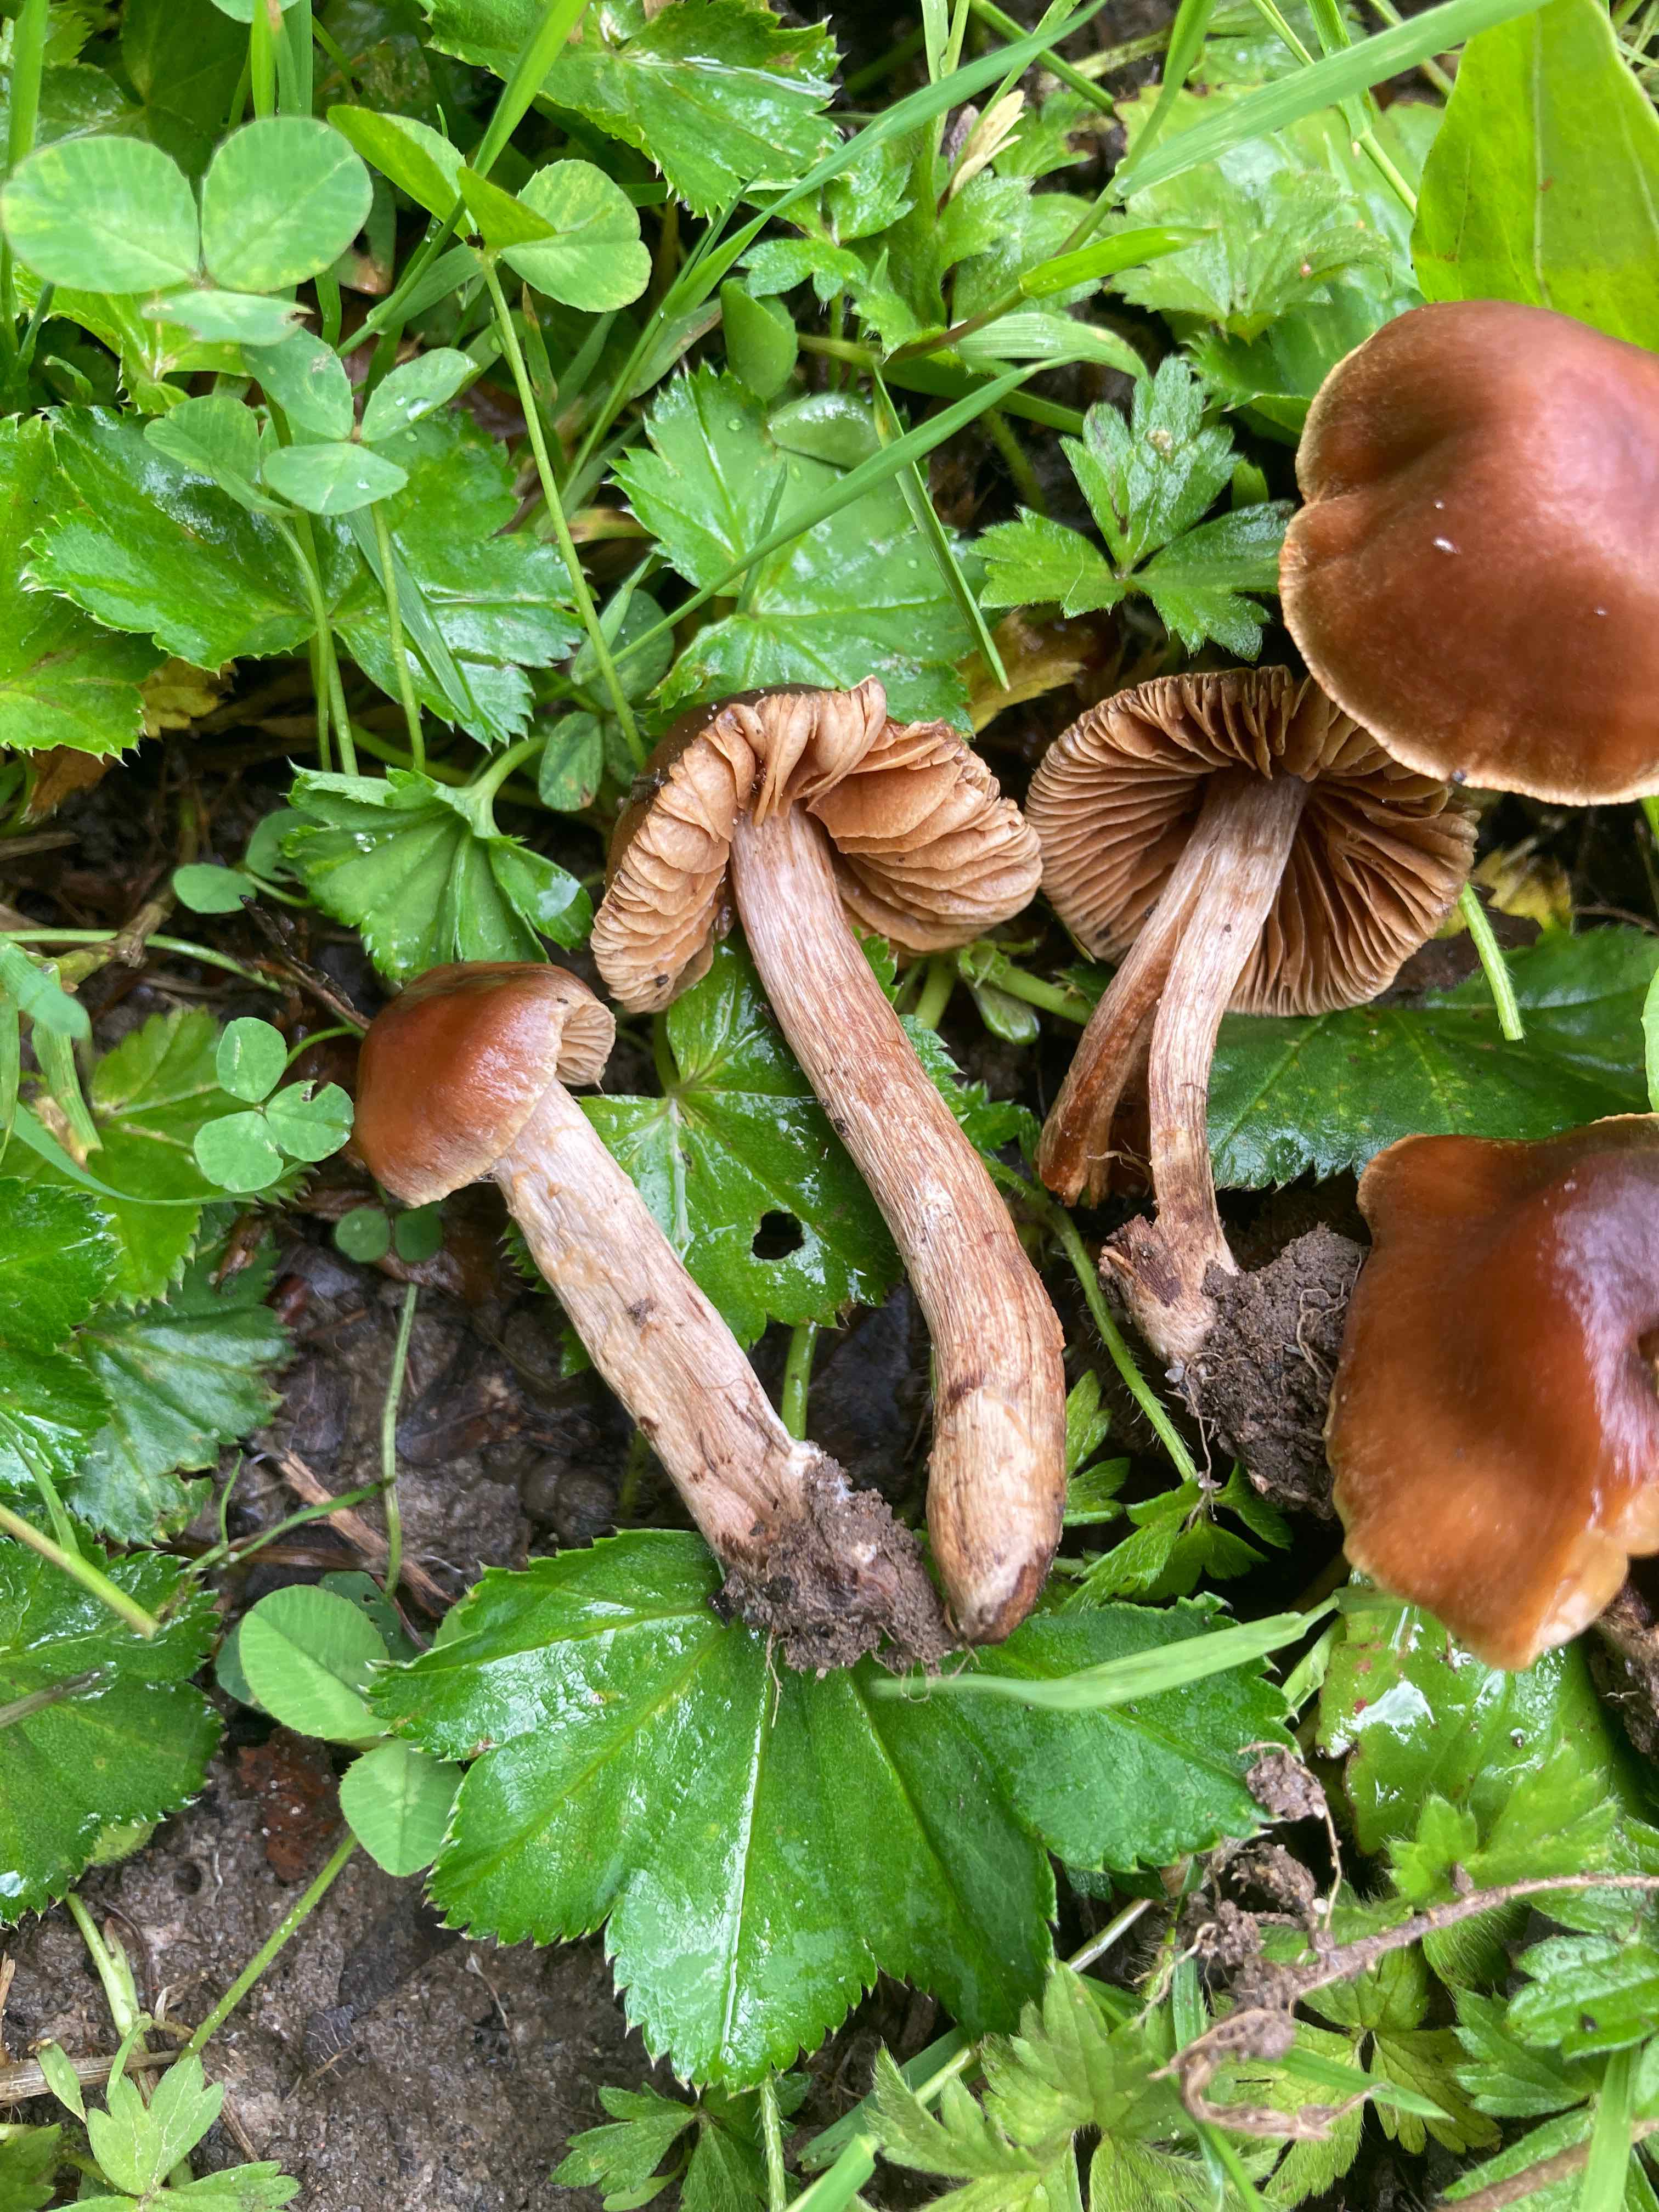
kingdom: Fungi
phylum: Basidiomycota
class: Agaricomycetes
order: Agaricales
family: Cortinariaceae
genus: Cortinarius
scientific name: Cortinarius fuscogracilescens
